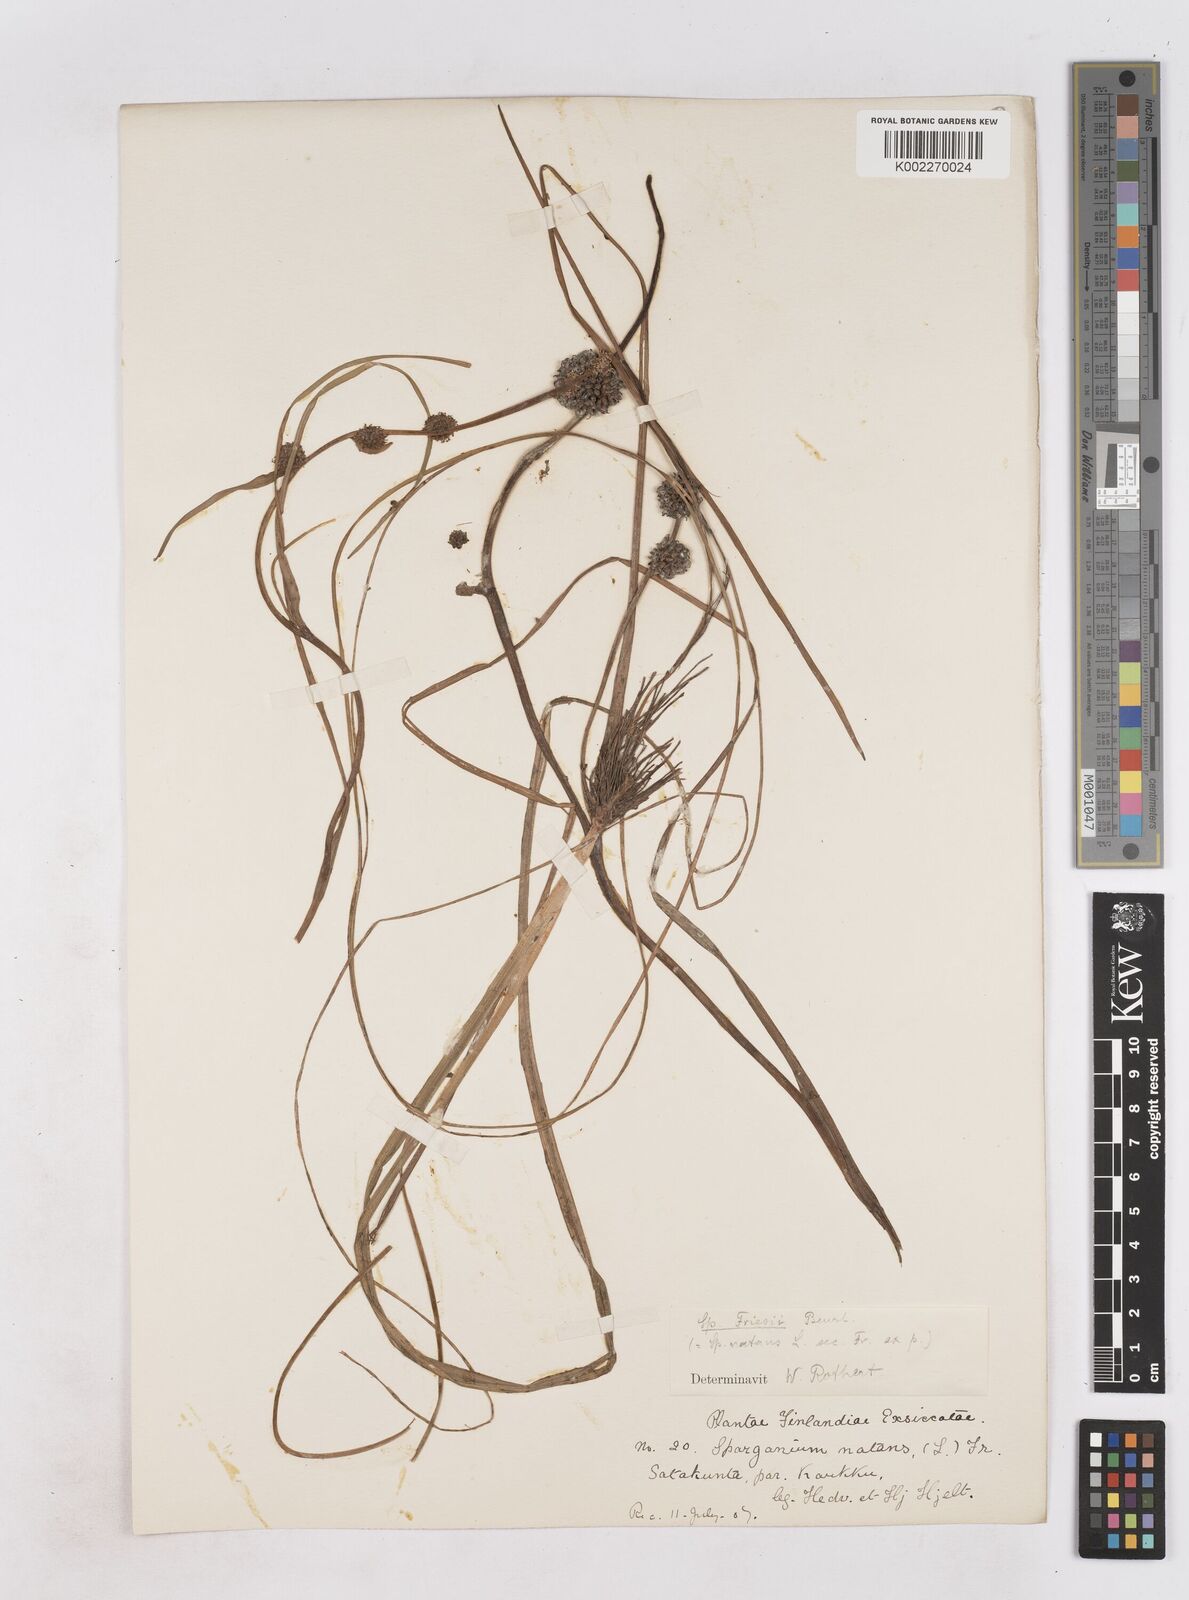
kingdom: Plantae
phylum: Tracheophyta
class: Liliopsida
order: Poales
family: Typhaceae
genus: Sparganium
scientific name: Sparganium gramineum
